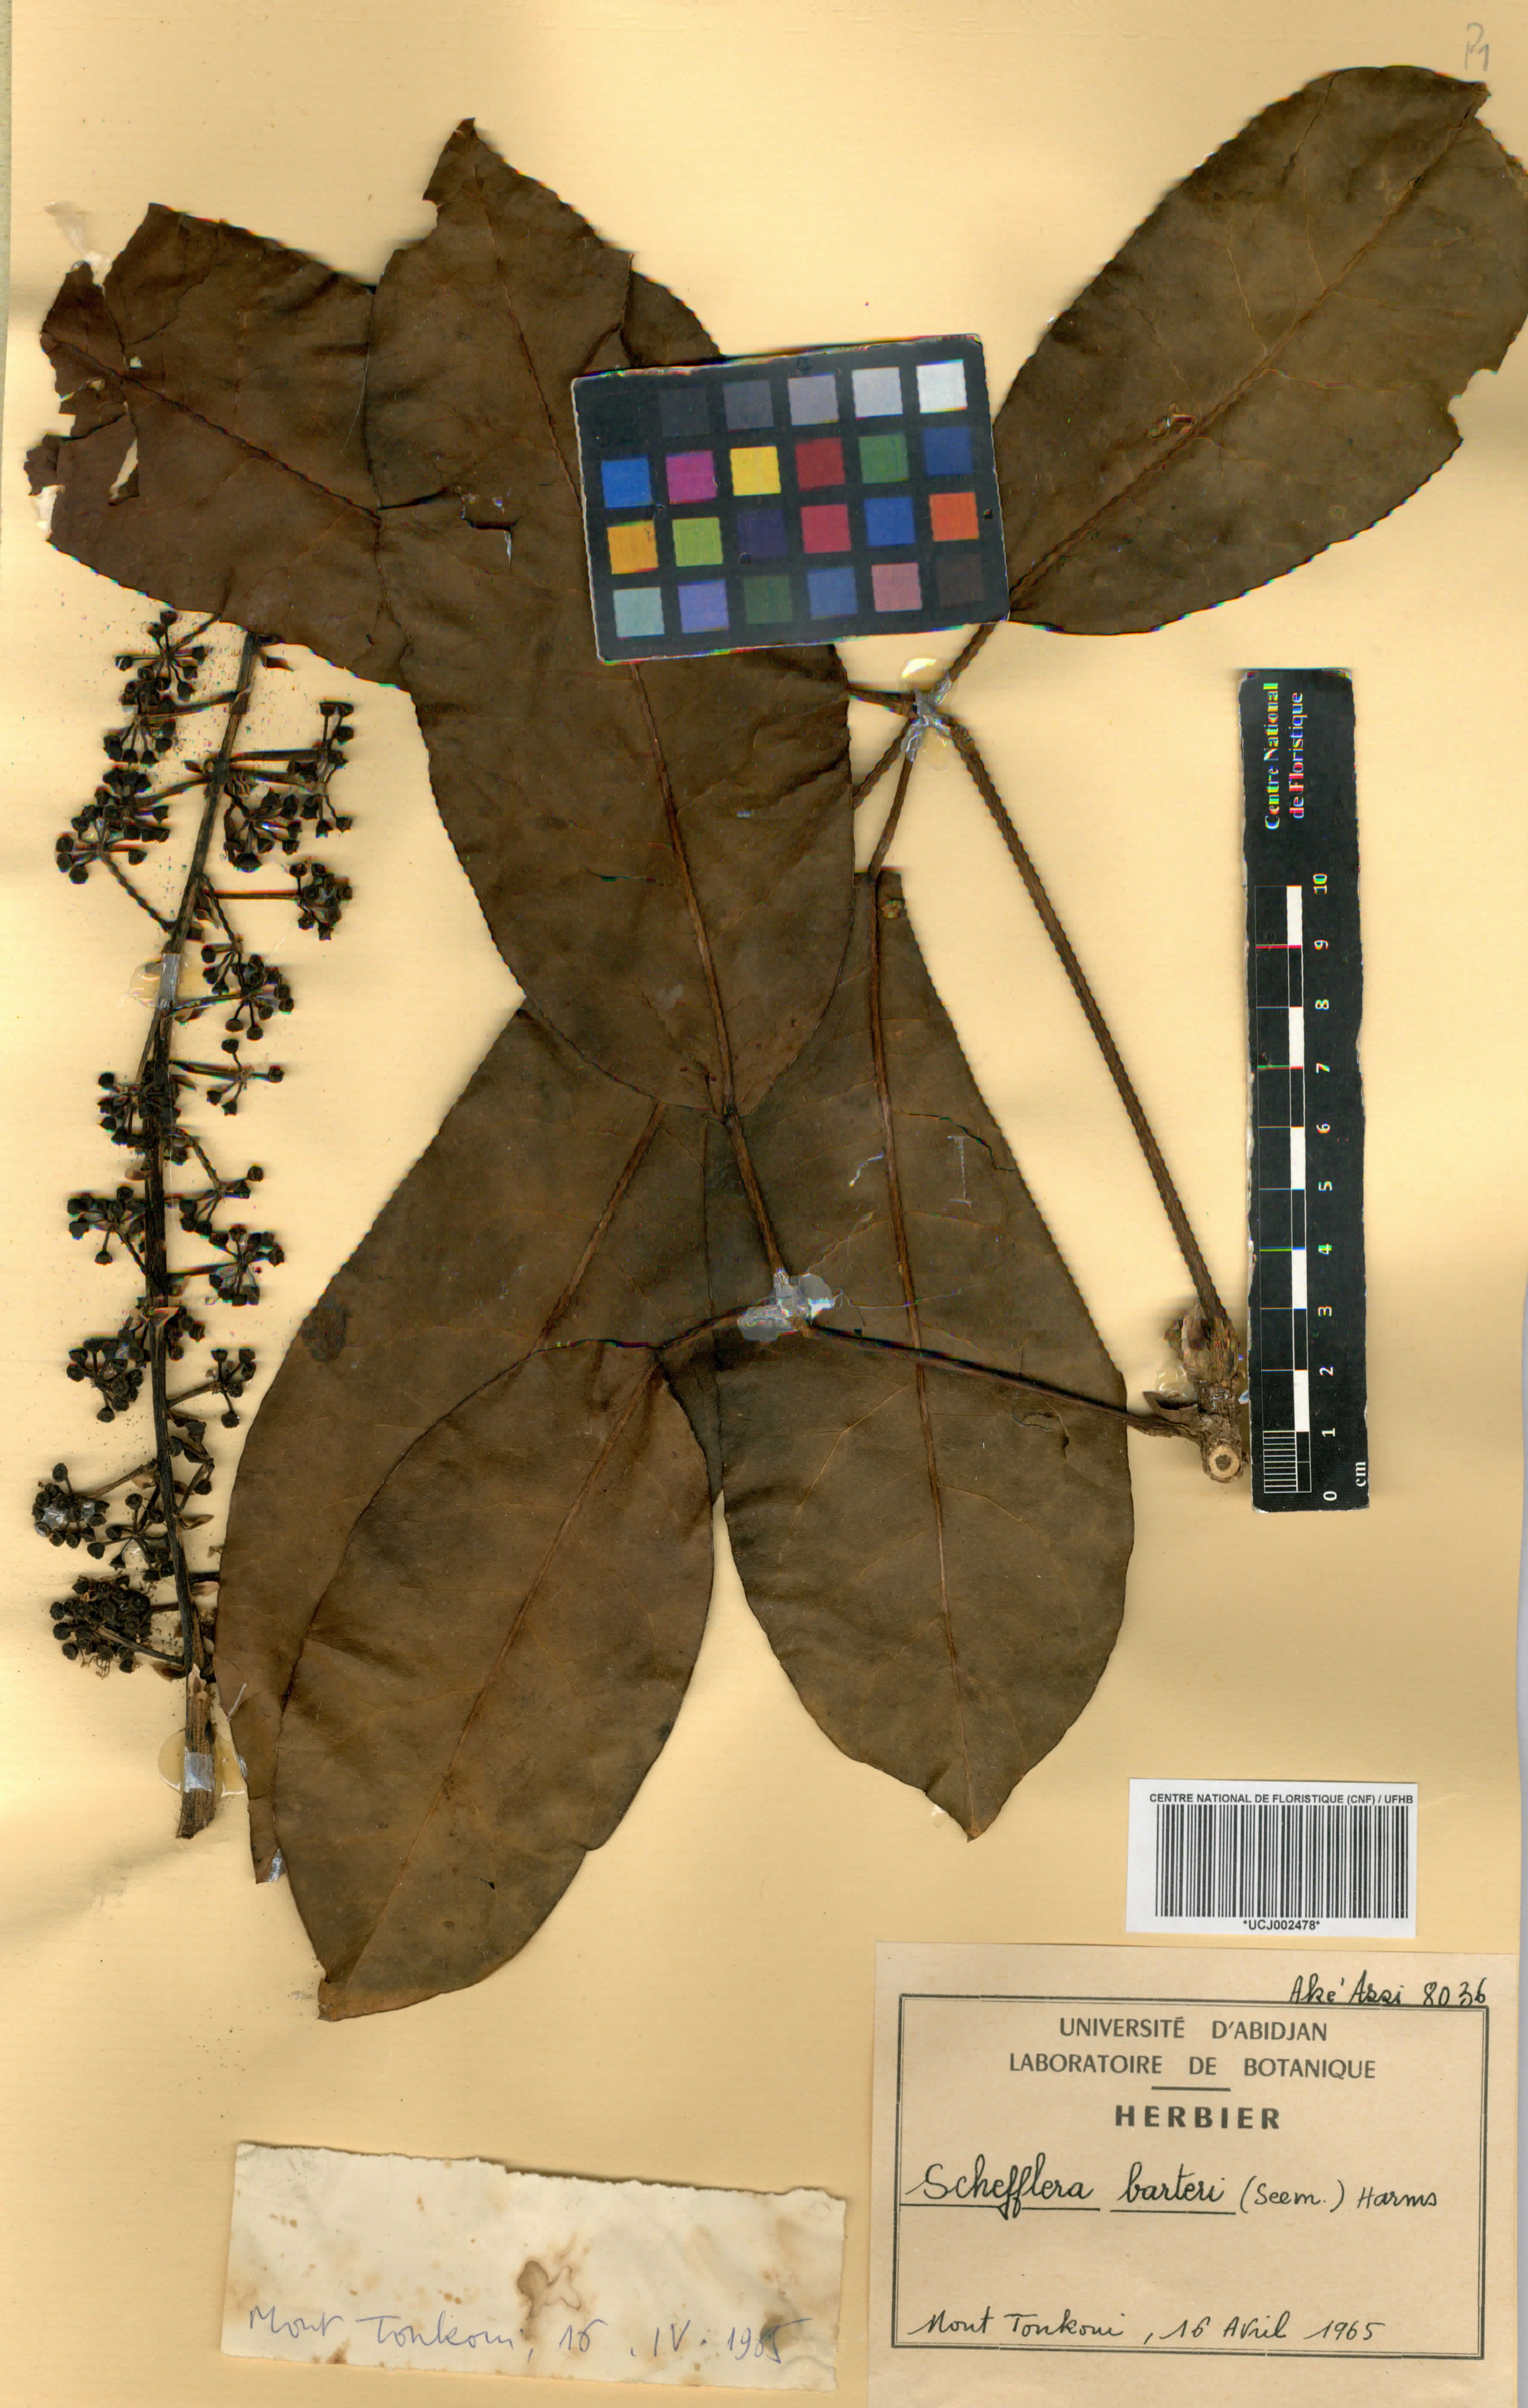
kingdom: Plantae
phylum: Tracheophyta
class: Magnoliopsida
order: Apiales
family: Araliaceae
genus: Astropanax
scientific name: Astropanax barteri
